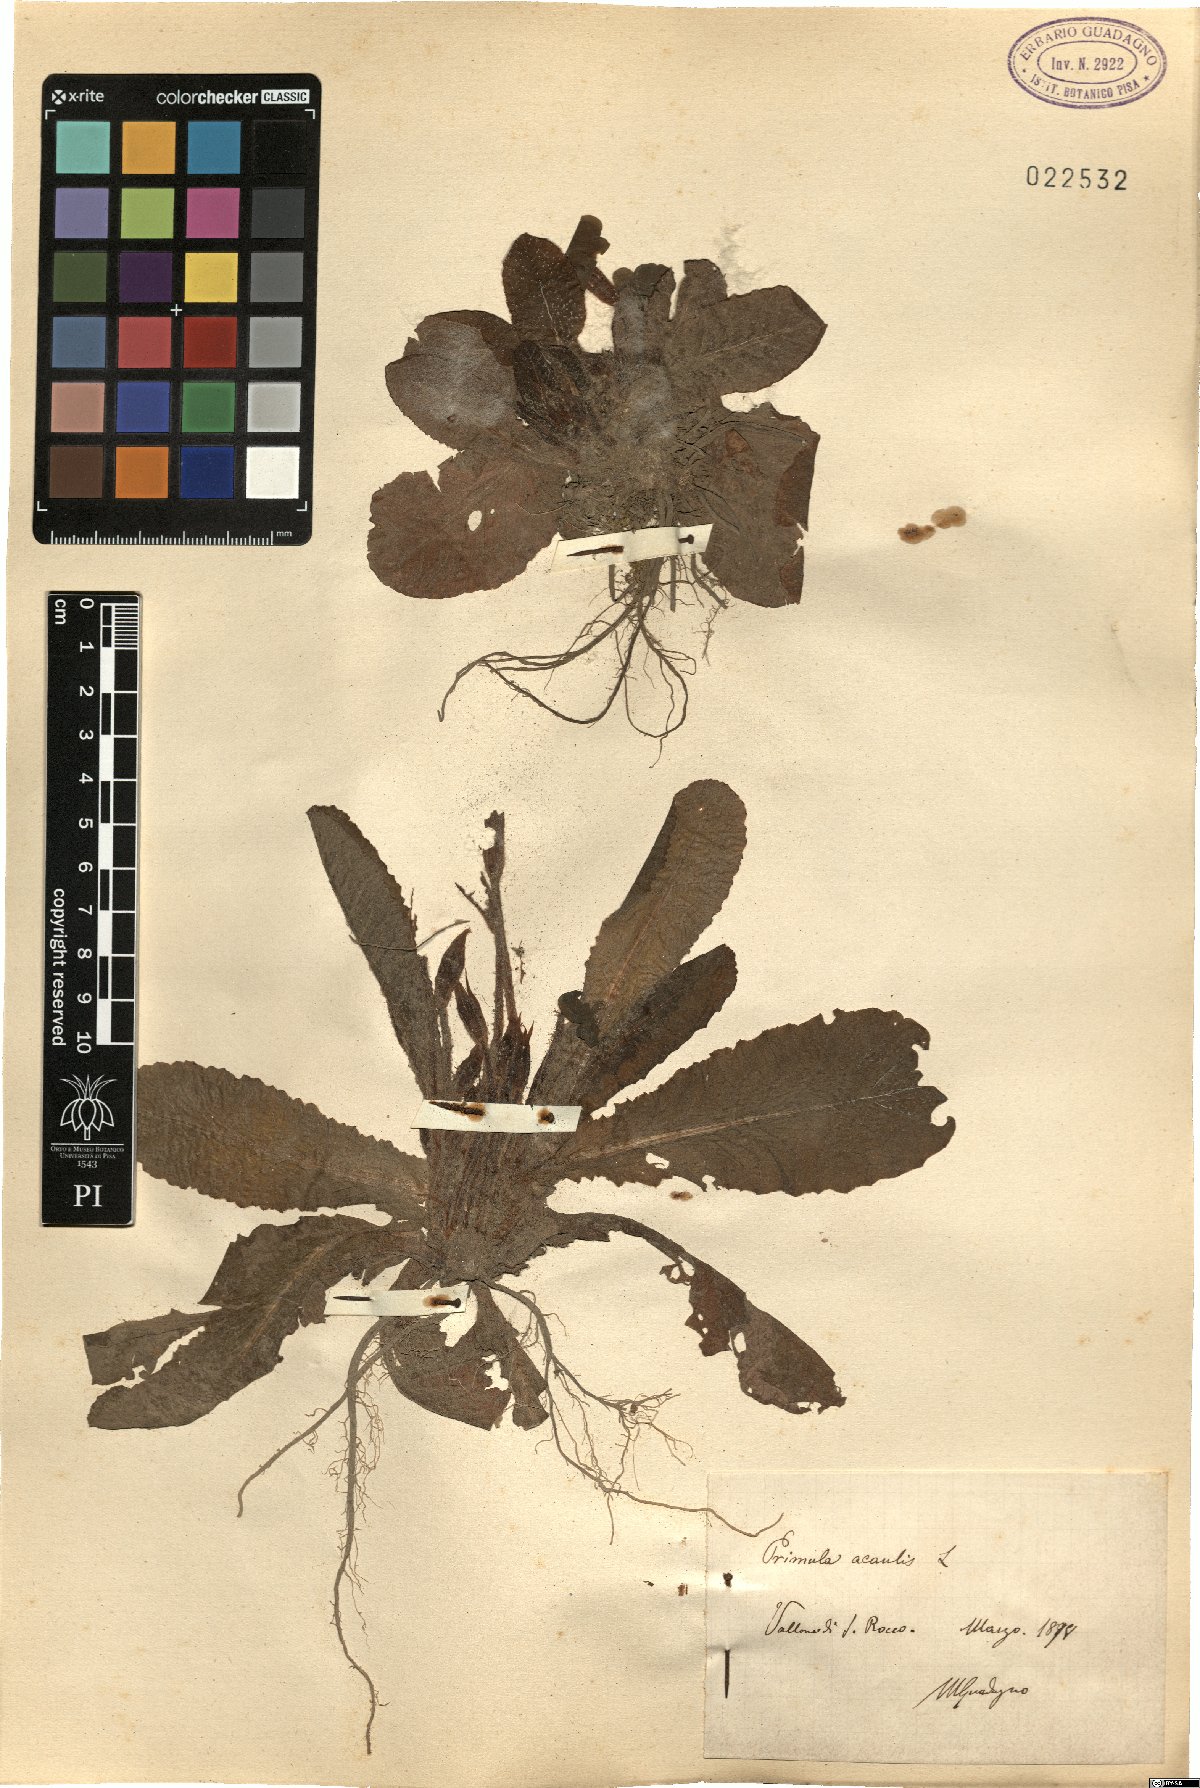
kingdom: Plantae
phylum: Tracheophyta
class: Magnoliopsida
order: Ericales
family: Primulaceae
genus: Primula
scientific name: Primula vulgaris
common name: Primrose
